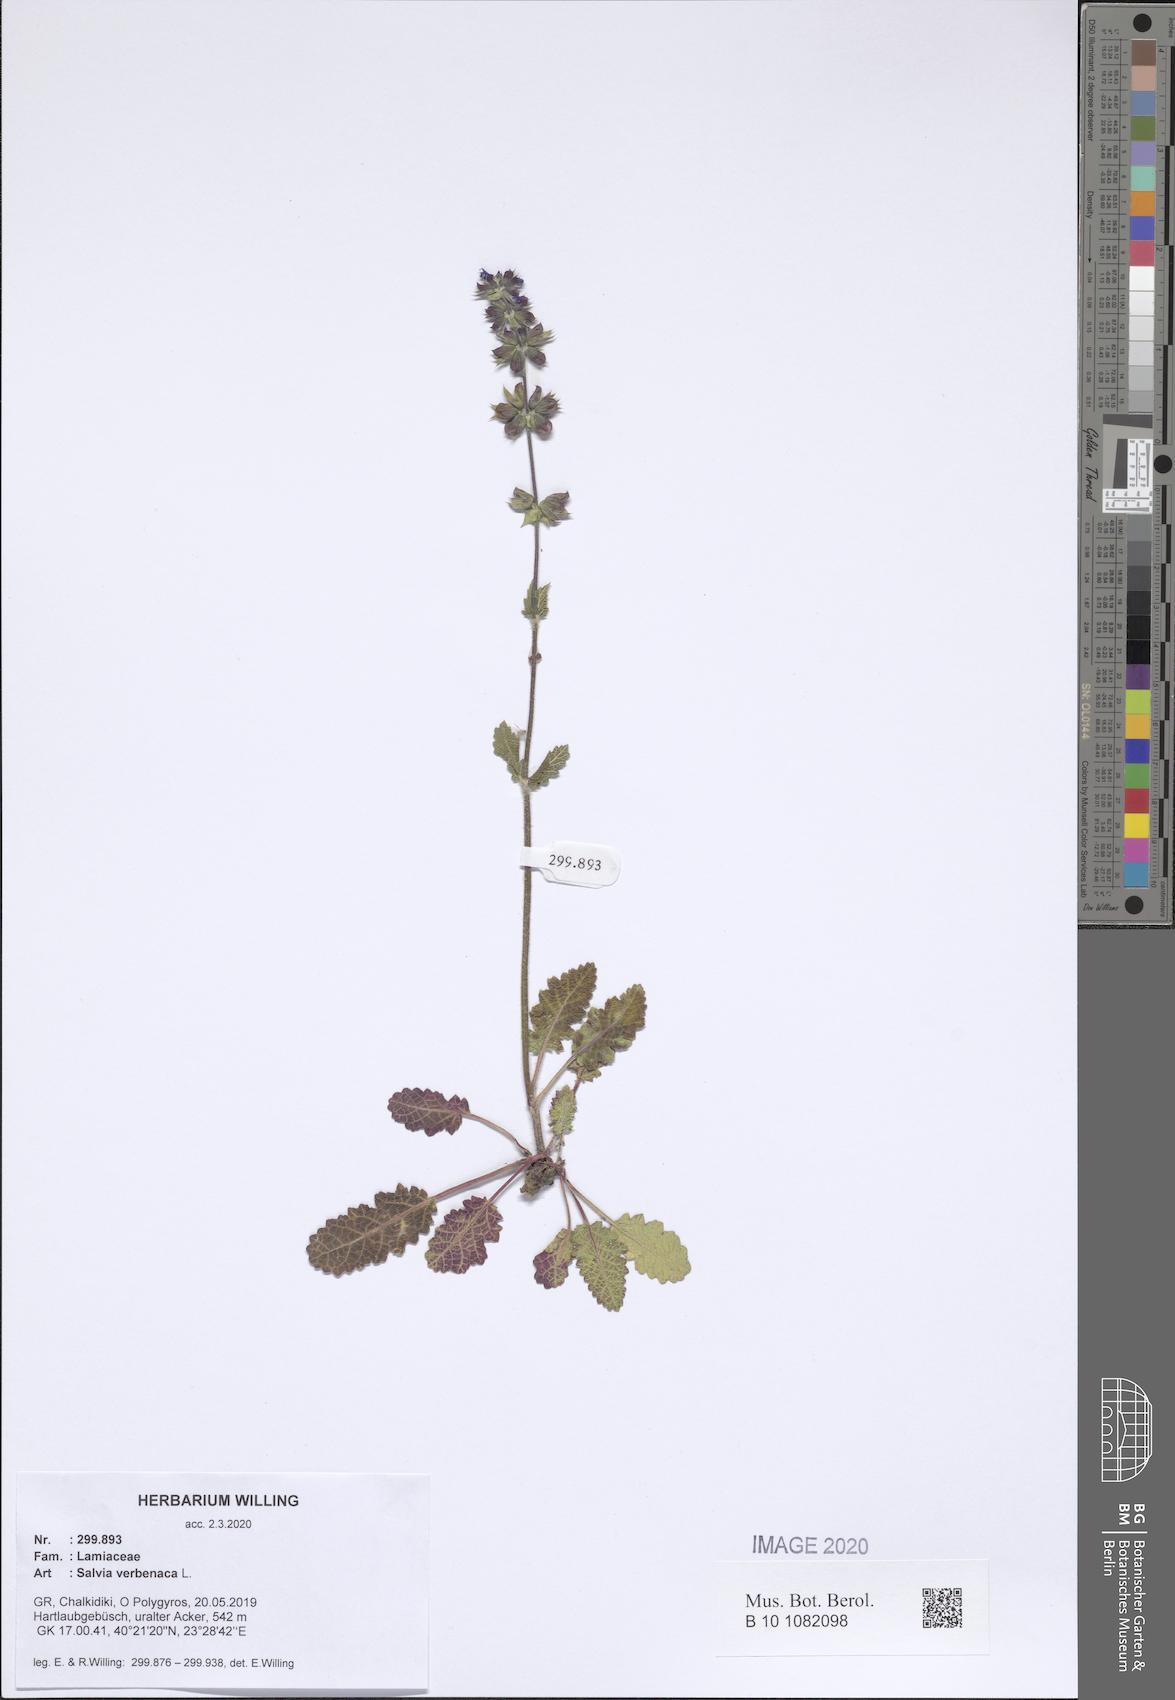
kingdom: Plantae
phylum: Tracheophyta
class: Magnoliopsida
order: Lamiales
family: Lamiaceae
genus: Salvia
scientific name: Salvia verbenaca
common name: Wild clary
